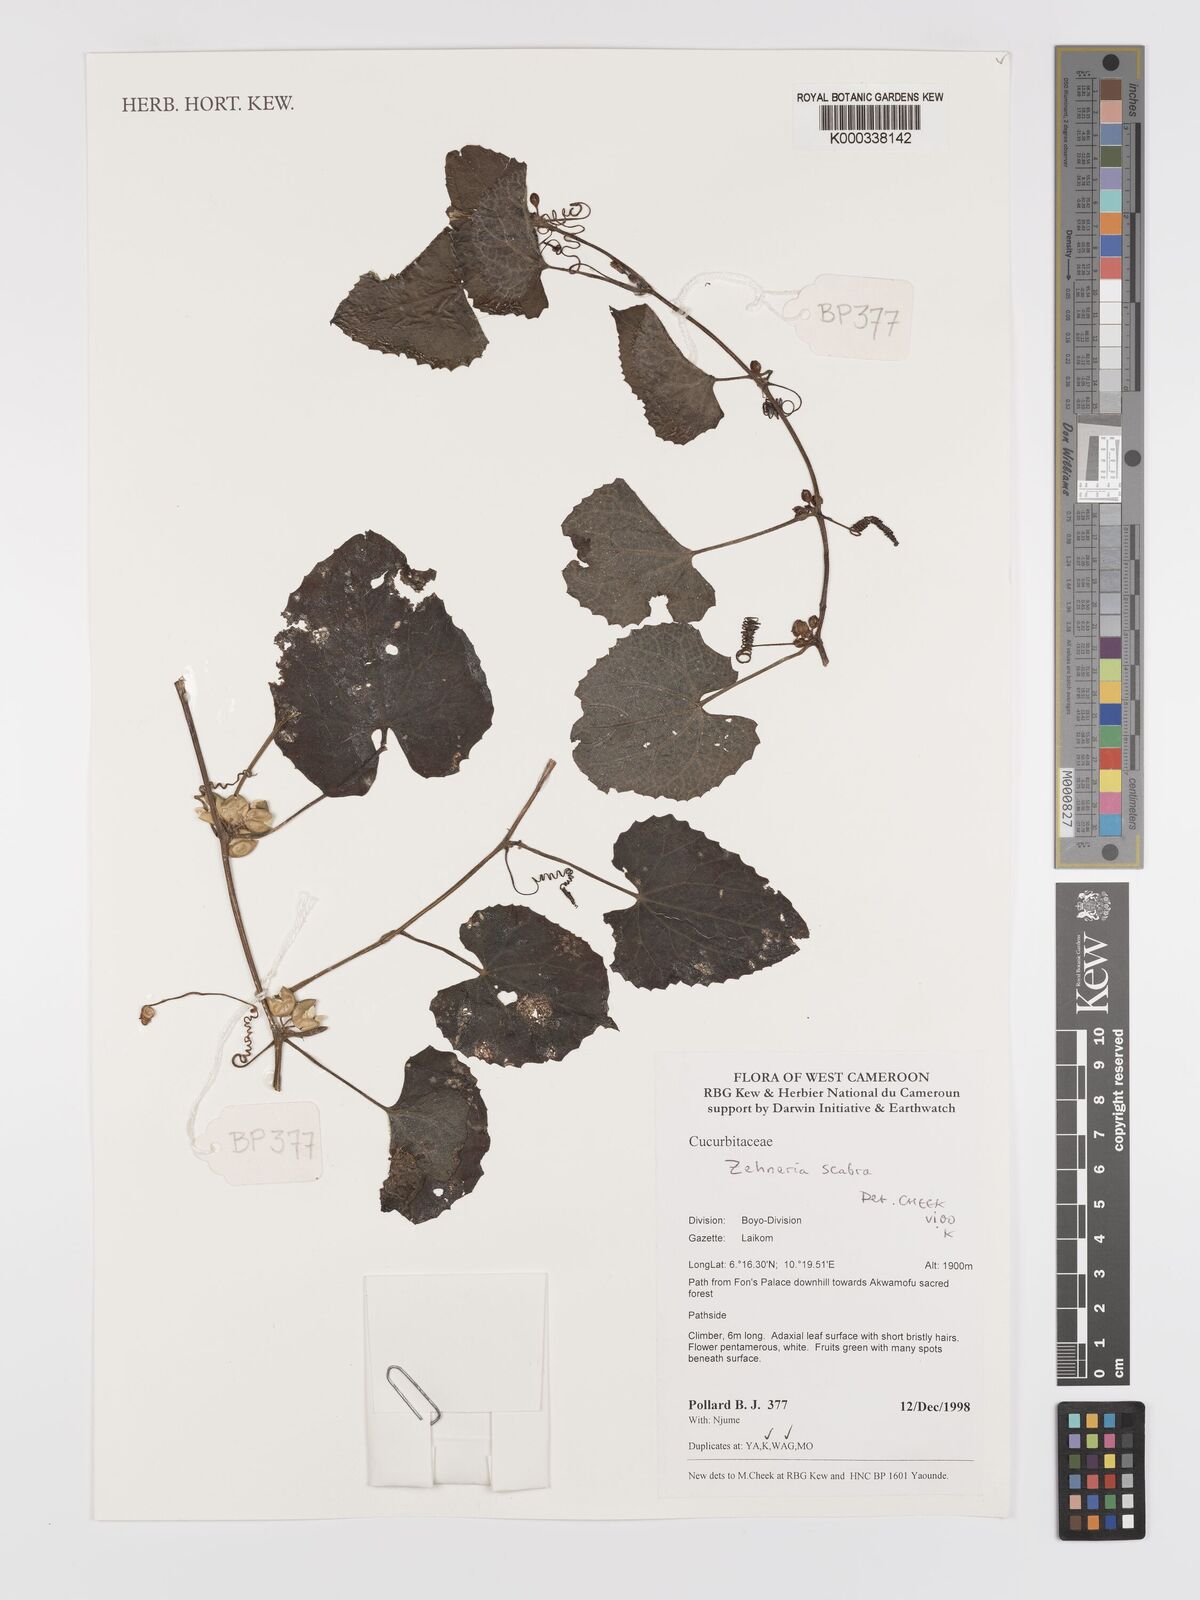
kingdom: Plantae
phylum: Tracheophyta
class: Magnoliopsida
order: Cucurbitales
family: Cucurbitaceae
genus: Zehneria
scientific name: Zehneria scabra
